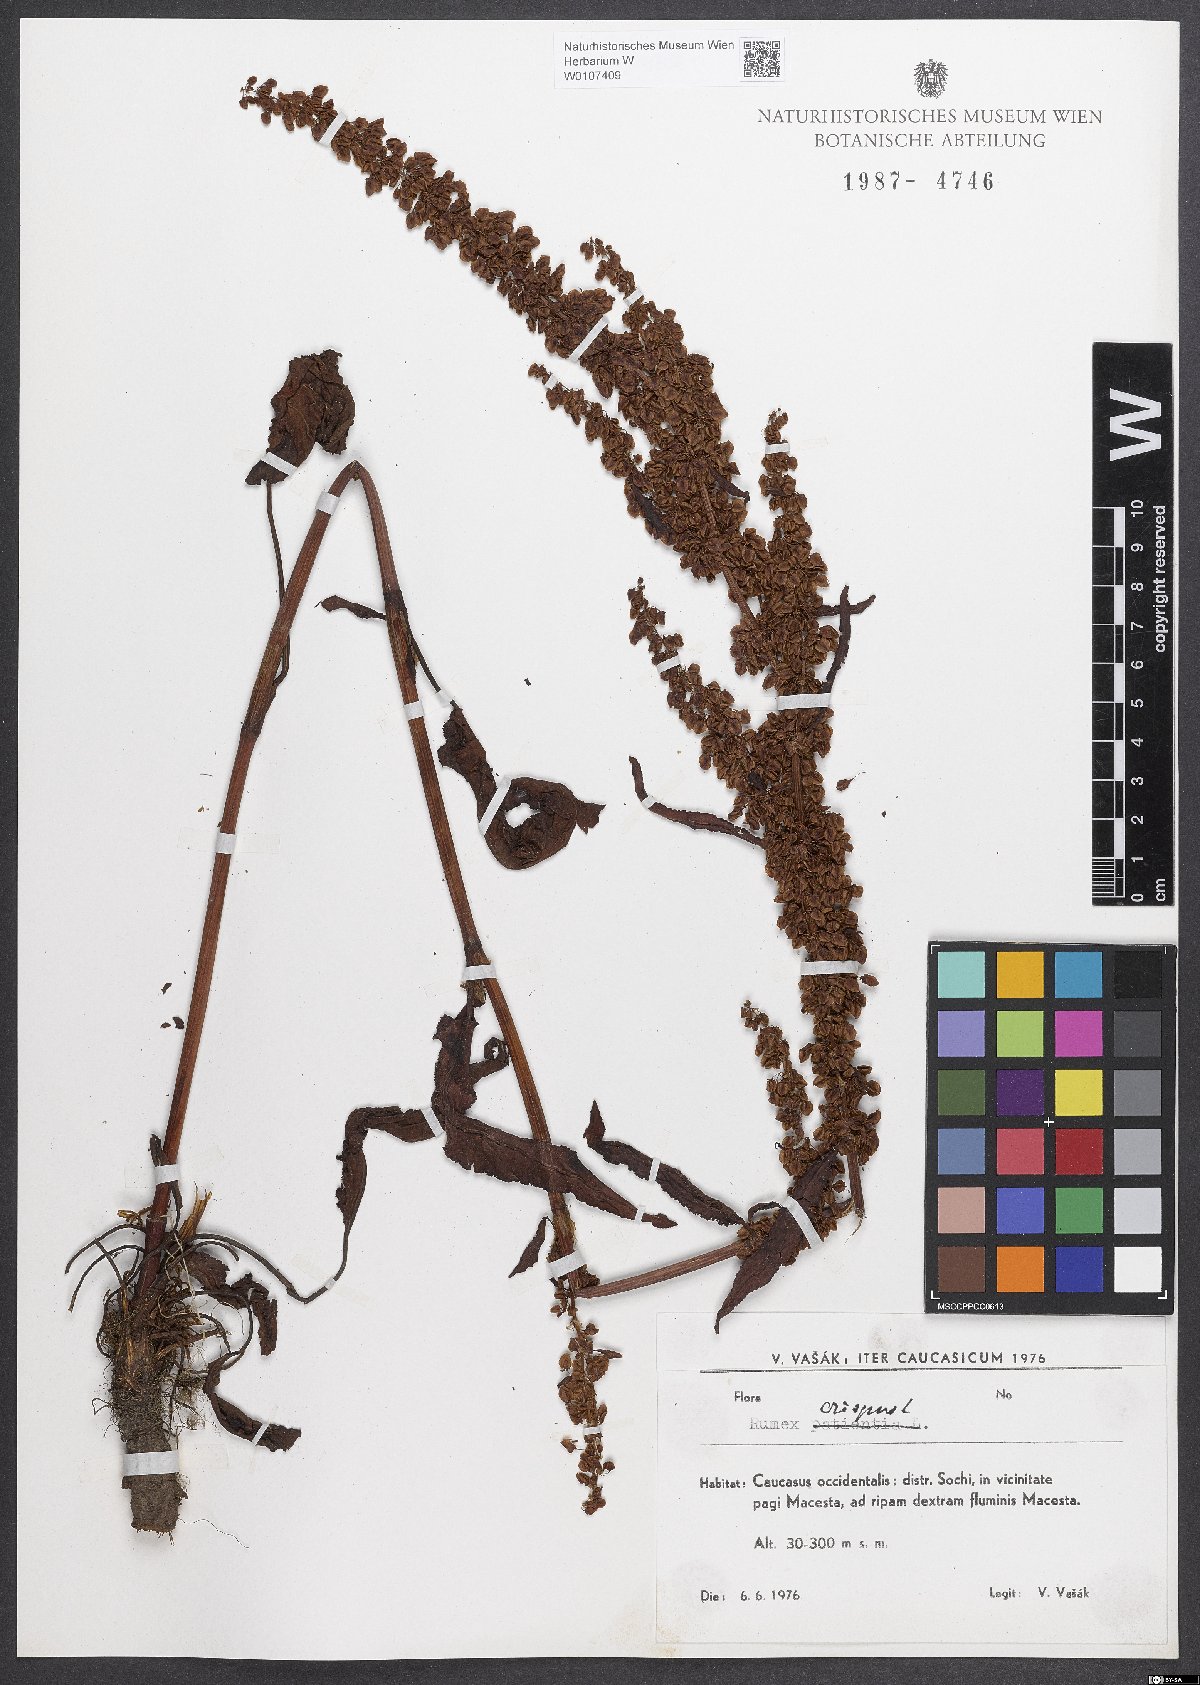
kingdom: Plantae
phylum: Tracheophyta
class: Magnoliopsida
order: Caryophyllales
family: Polygonaceae
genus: Rumex
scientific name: Rumex crispus
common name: Curled dock
